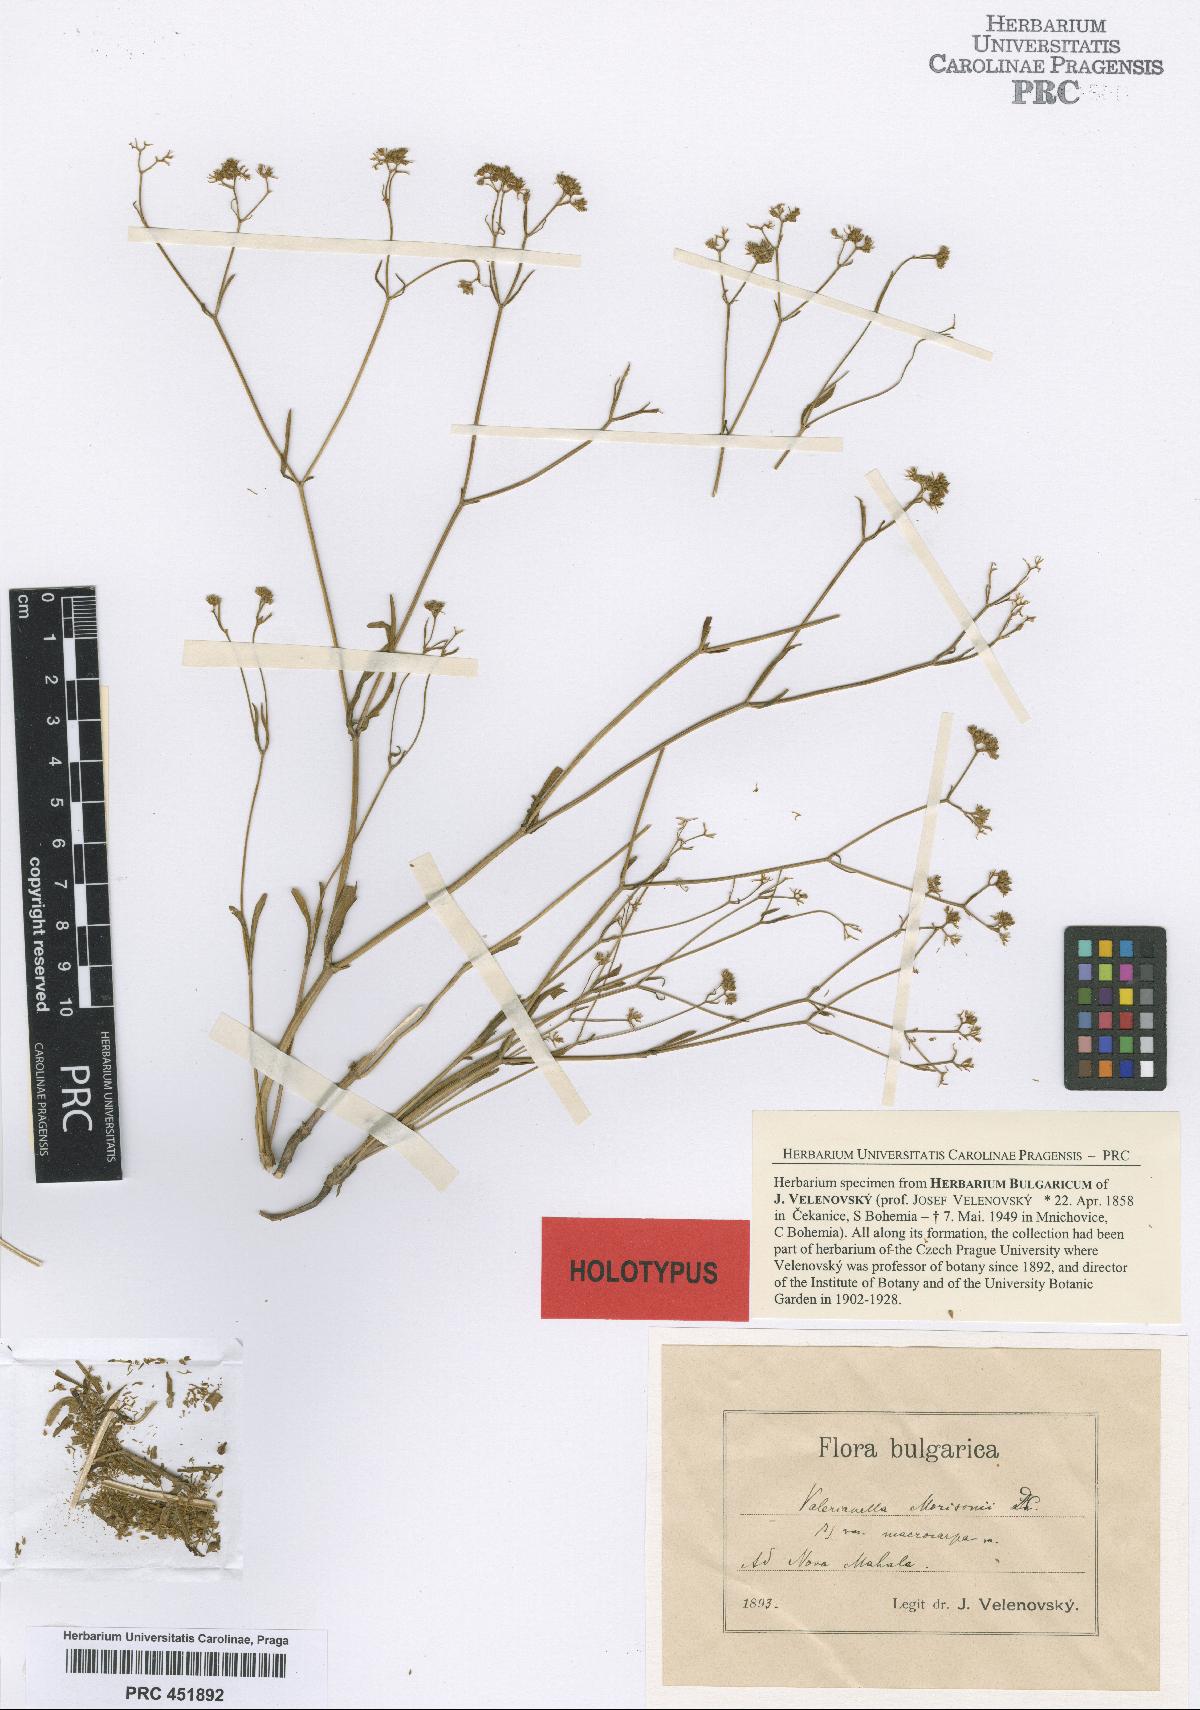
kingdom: Plantae
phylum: Tracheophyta
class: Magnoliopsida
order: Dipsacales
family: Caprifoliaceae
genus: Valerianella
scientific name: Valerianella dentata
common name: Narrow-fruited cornsalad
